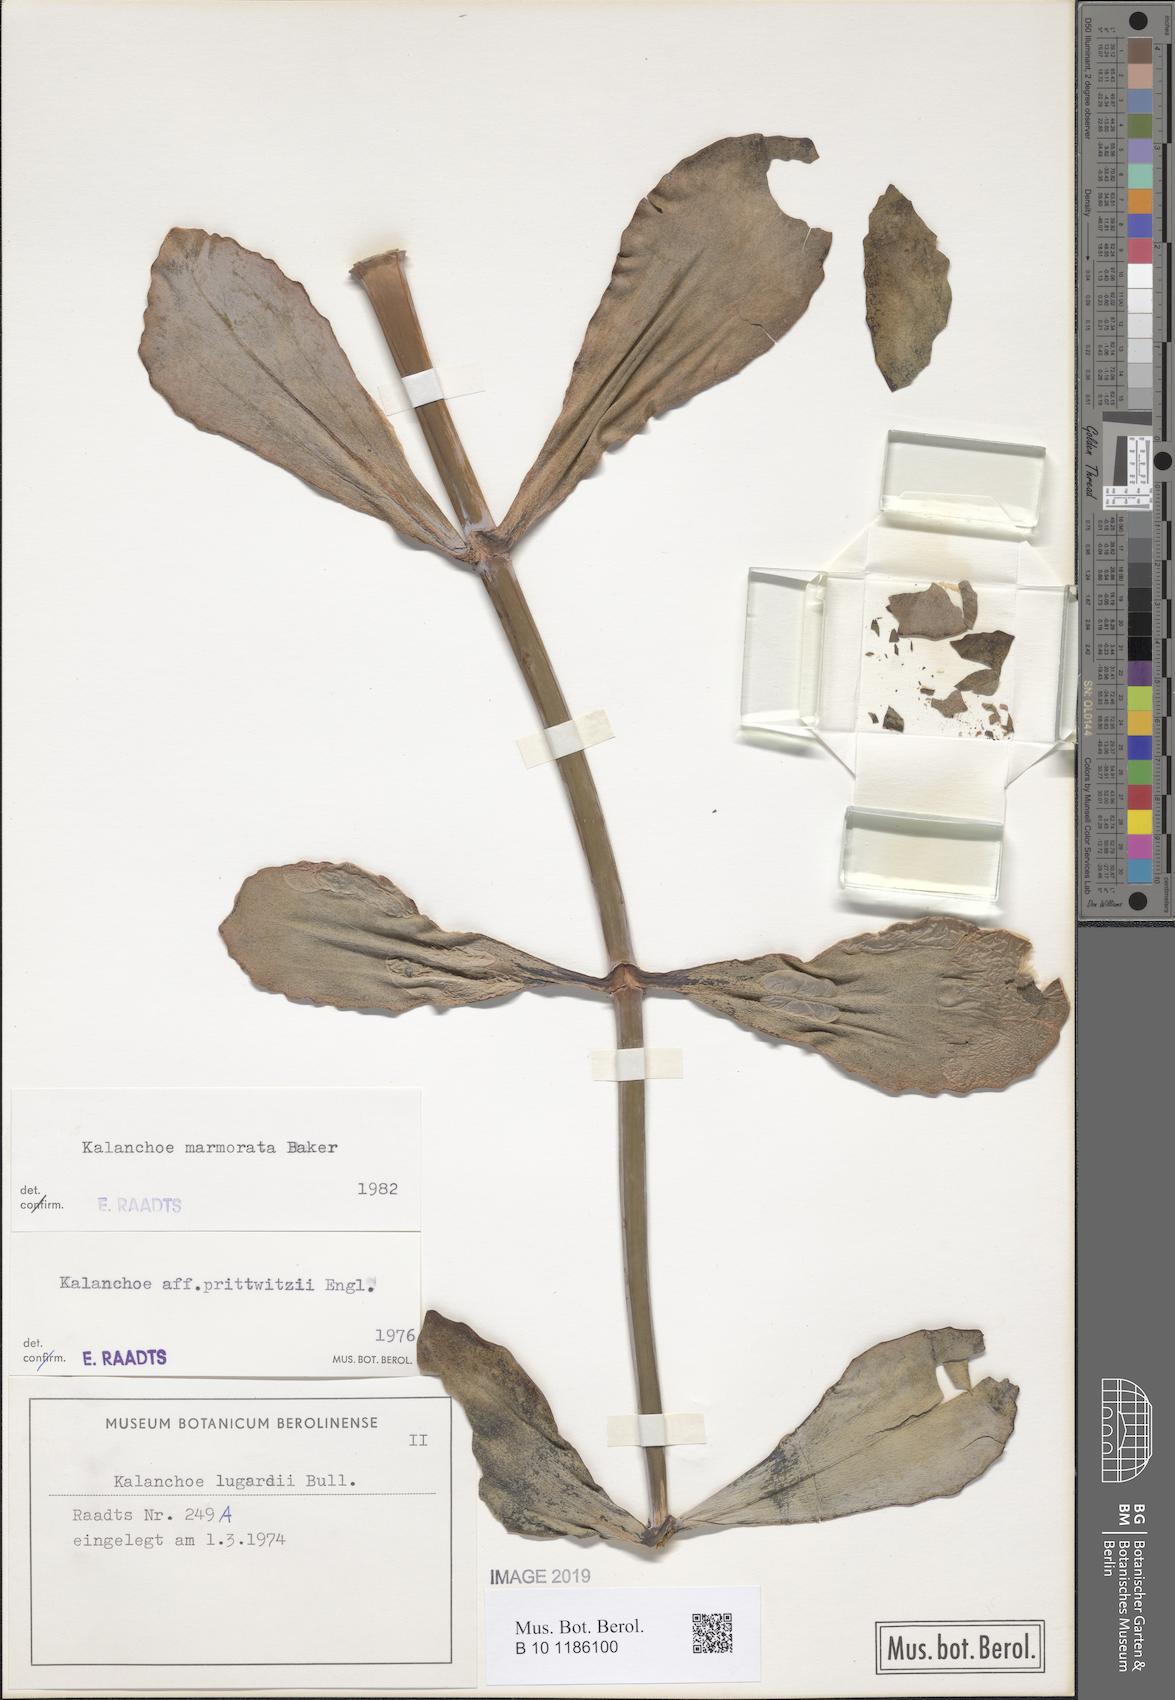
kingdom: Plantae
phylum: Tracheophyta
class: Magnoliopsida
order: Saxifragales
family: Crassulaceae
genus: Kalanchoe
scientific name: Kalanchoe marmorata
